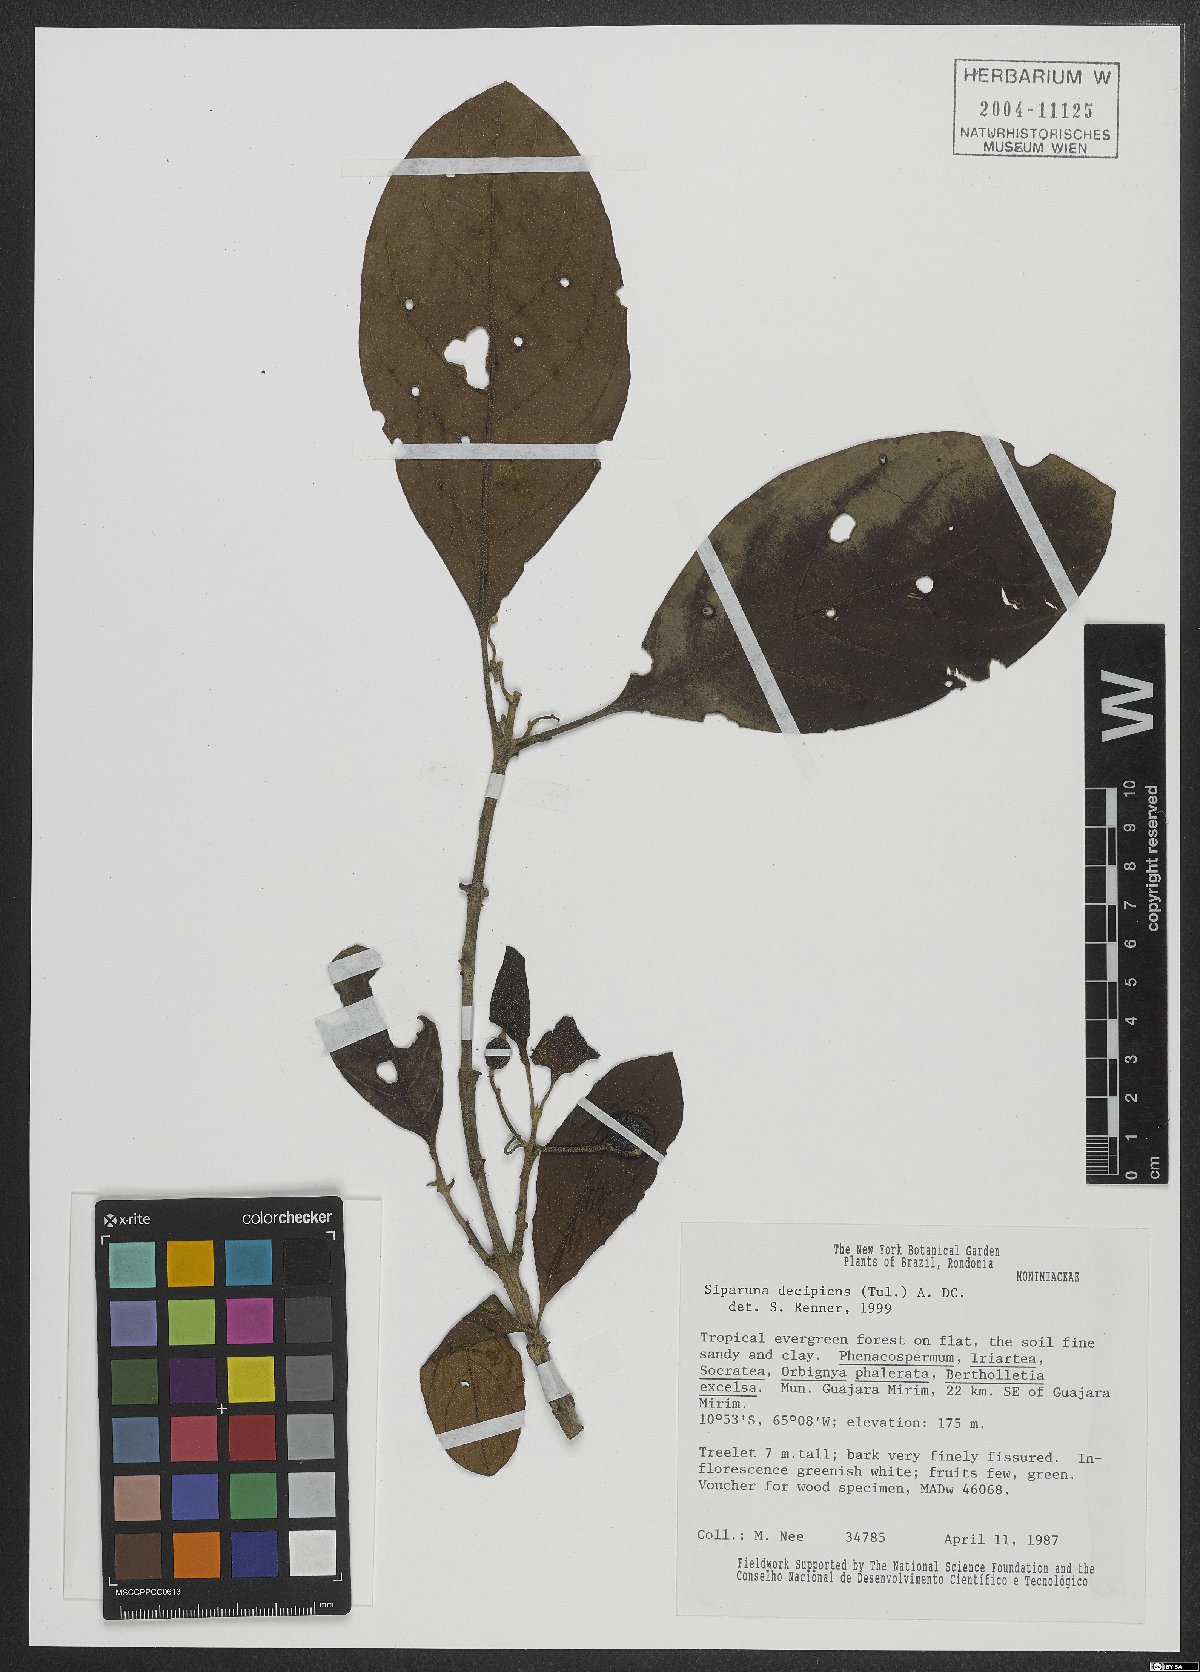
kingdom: Plantae
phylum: Tracheophyta
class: Magnoliopsida
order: Laurales
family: Siparunaceae
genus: Siparuna
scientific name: Siparuna decipiens
